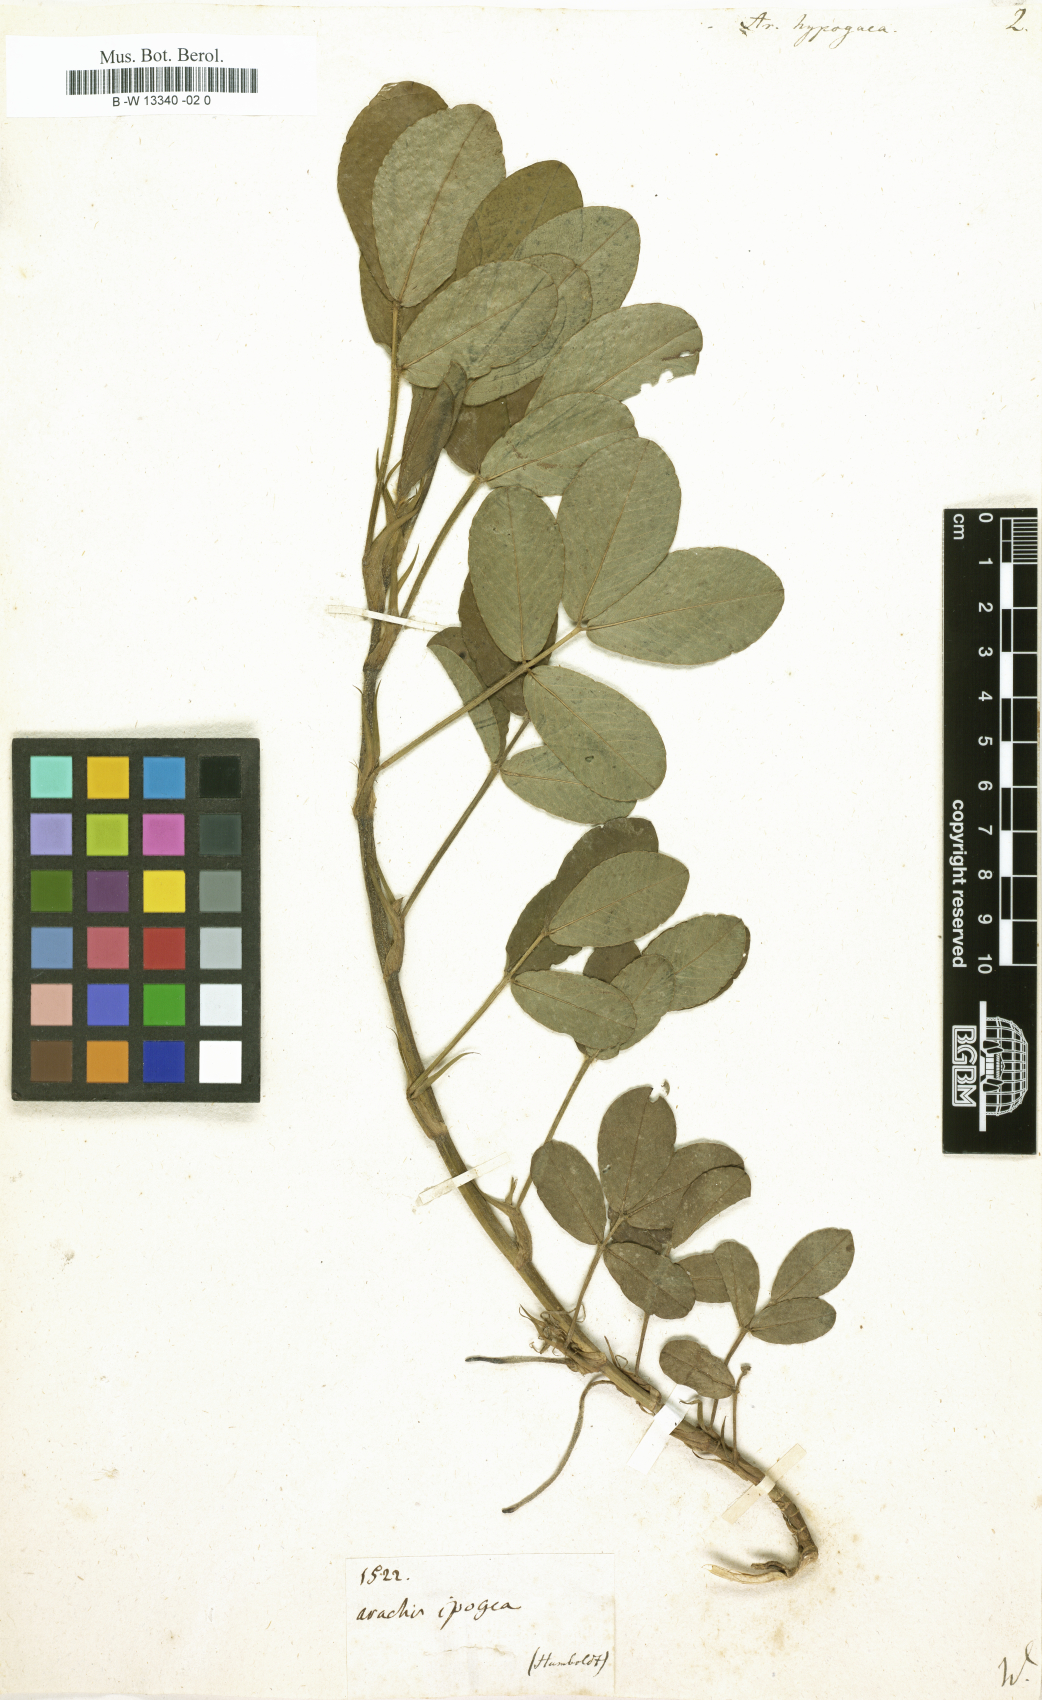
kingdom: Plantae
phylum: Tracheophyta
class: Magnoliopsida
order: Fabales
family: Fabaceae
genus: Arachis
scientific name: Arachis hypogaea
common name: Peanut
